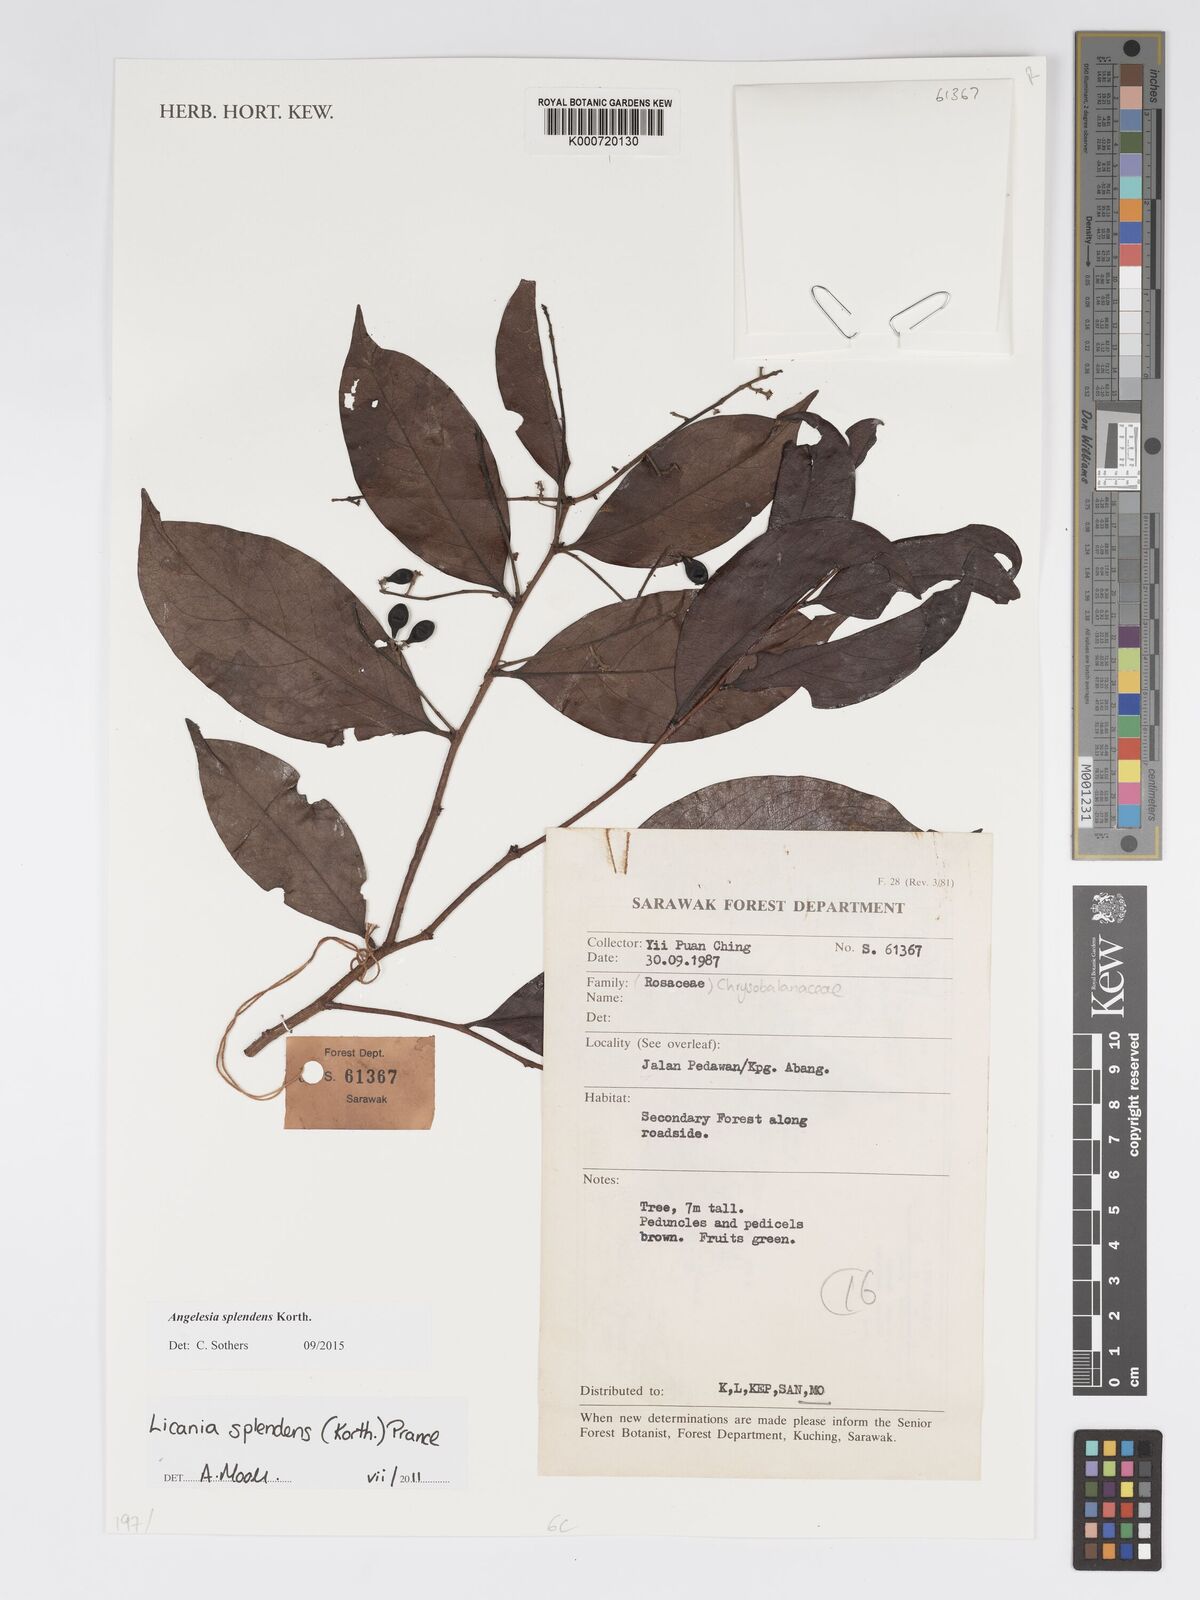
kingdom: Plantae
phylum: Tracheophyta
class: Magnoliopsida
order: Malpighiales
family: Chrysobalanaceae
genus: Angelesia
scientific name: Angelesia splendens
